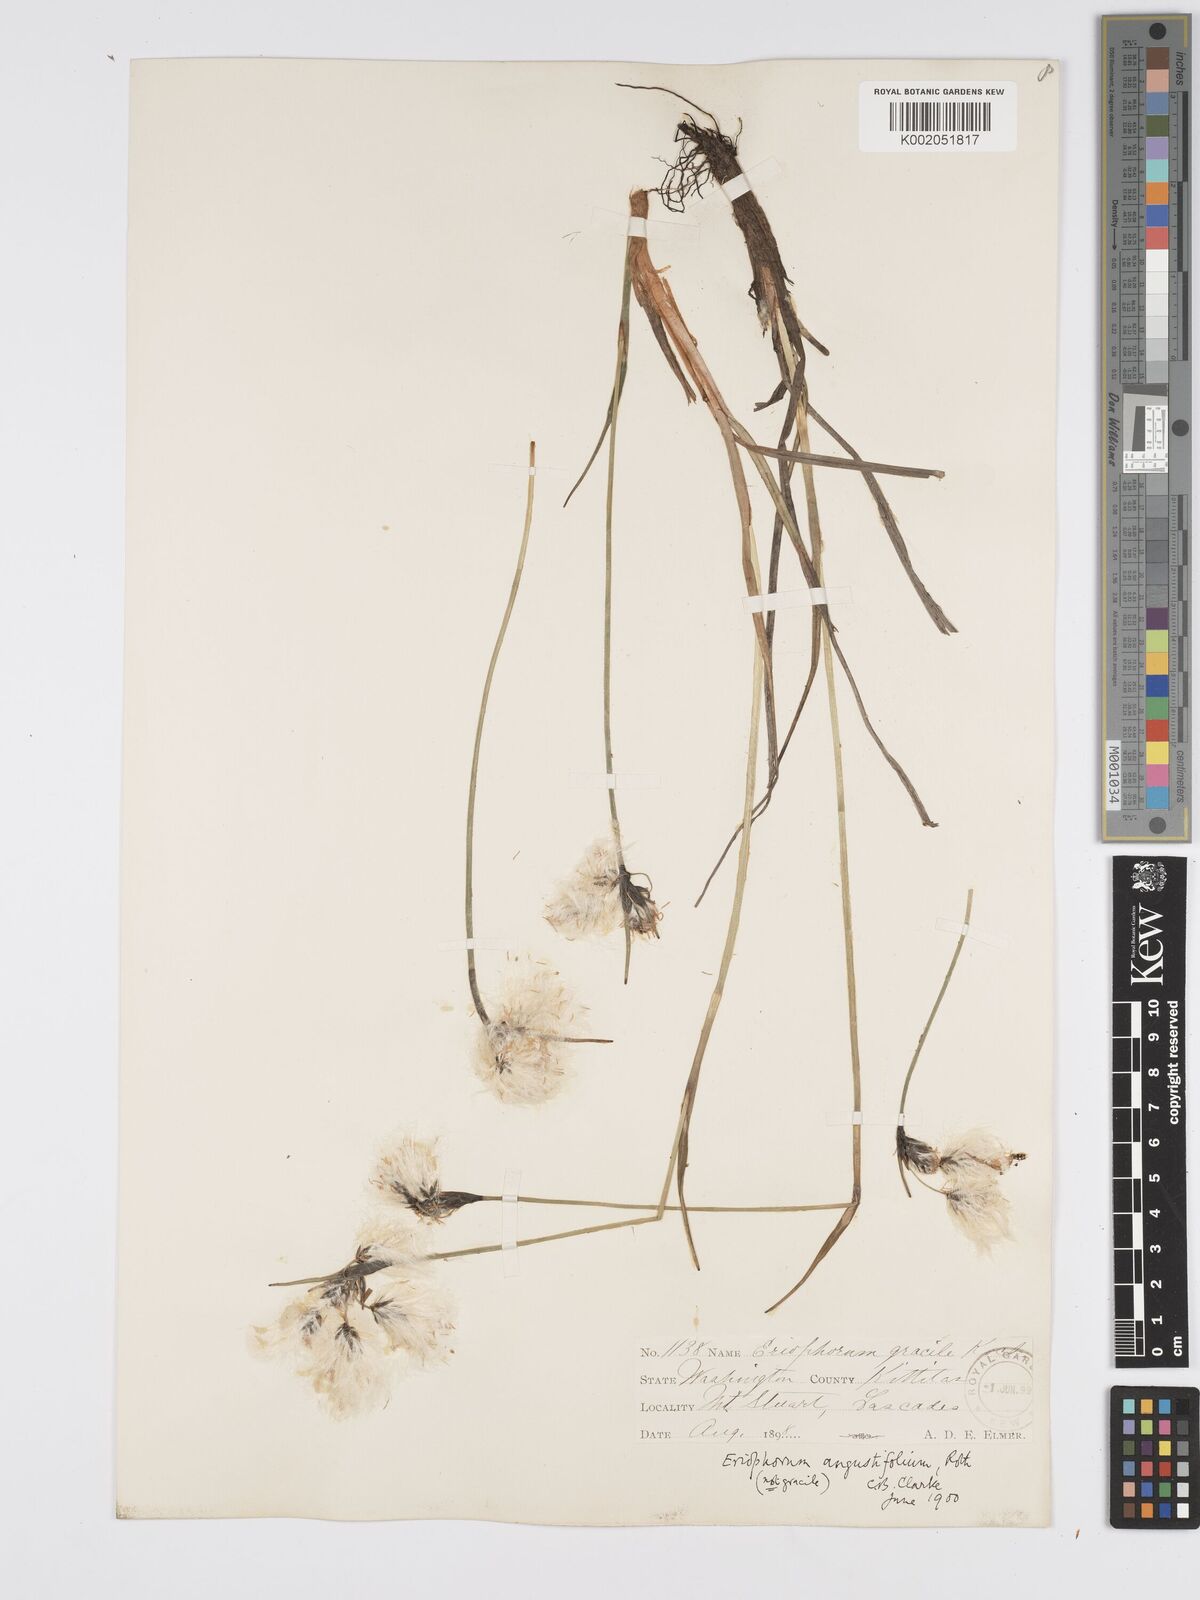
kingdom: Plantae
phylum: Tracheophyta
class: Liliopsida
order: Poales
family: Cyperaceae
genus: Eriophorum
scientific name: Eriophorum angustifolium
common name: Common cottongrass
